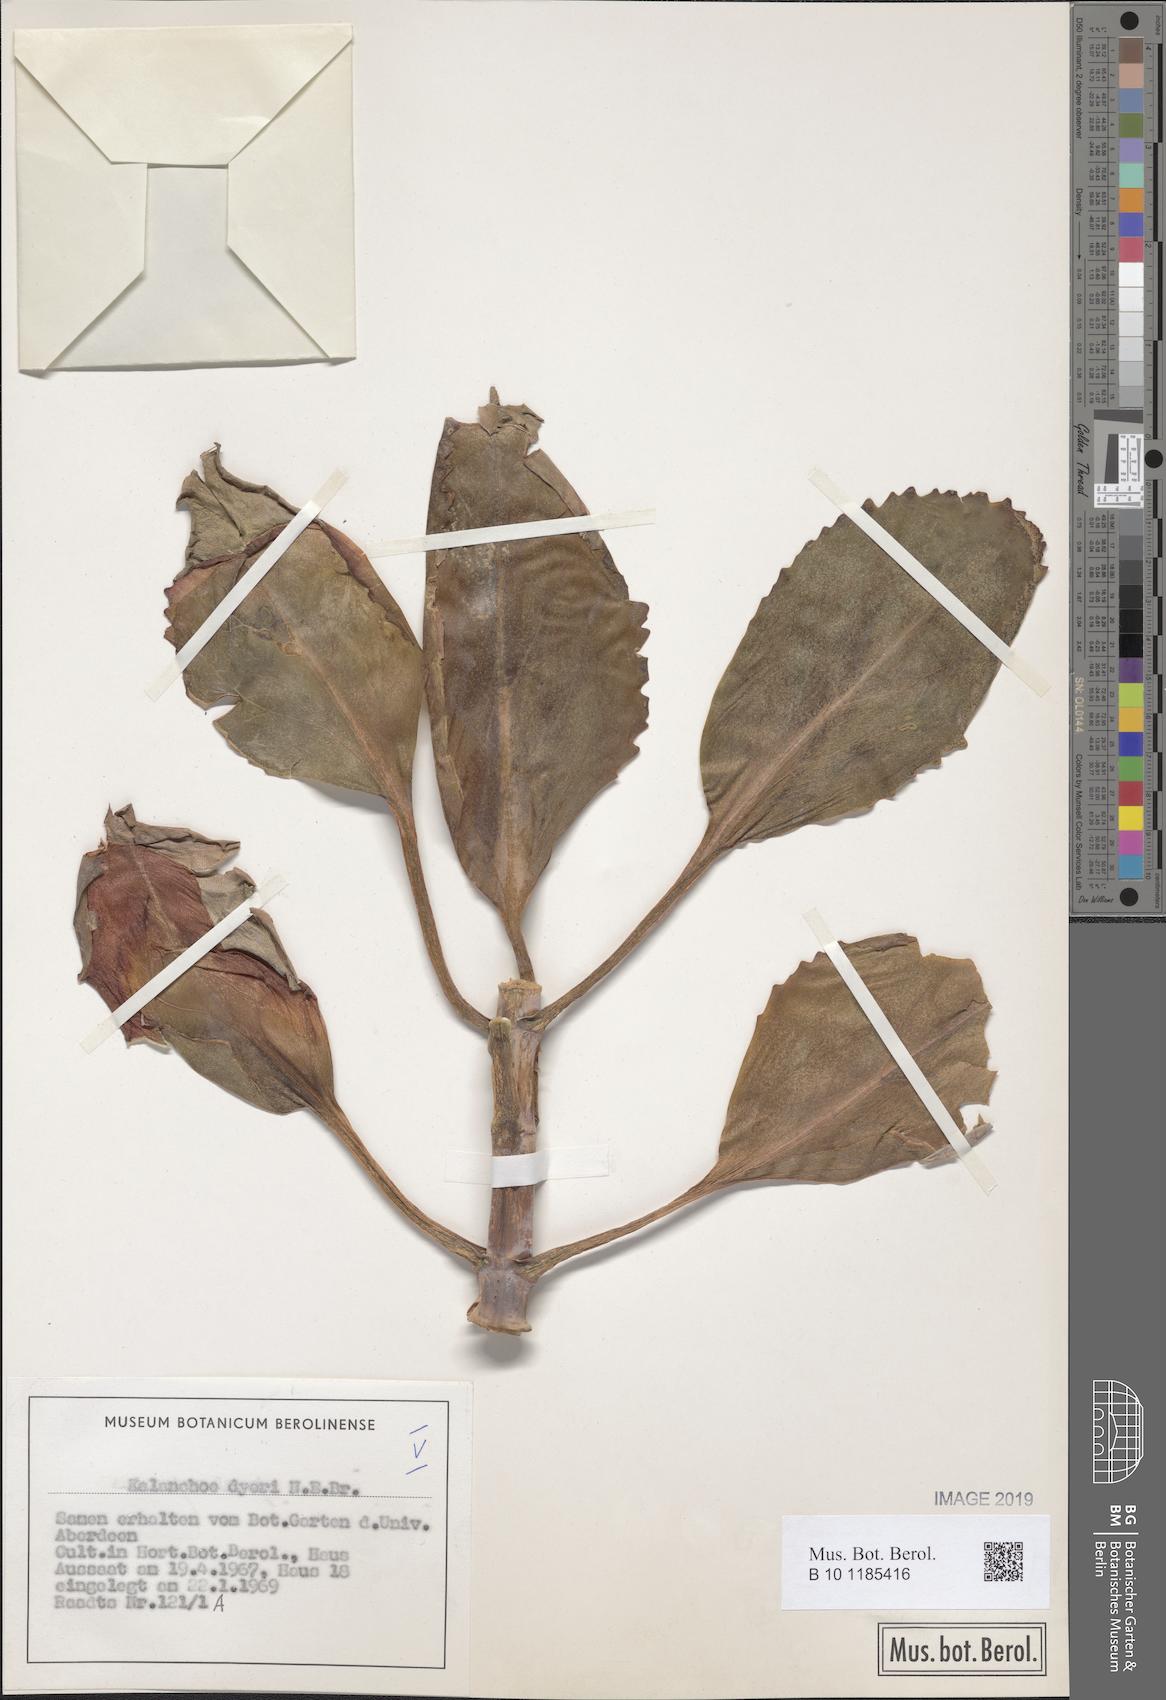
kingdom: Plantae
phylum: Tracheophyta
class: Magnoliopsida
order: Saxifragales
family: Crassulaceae
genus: Kalanchoe
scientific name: Kalanchoe dyeri
